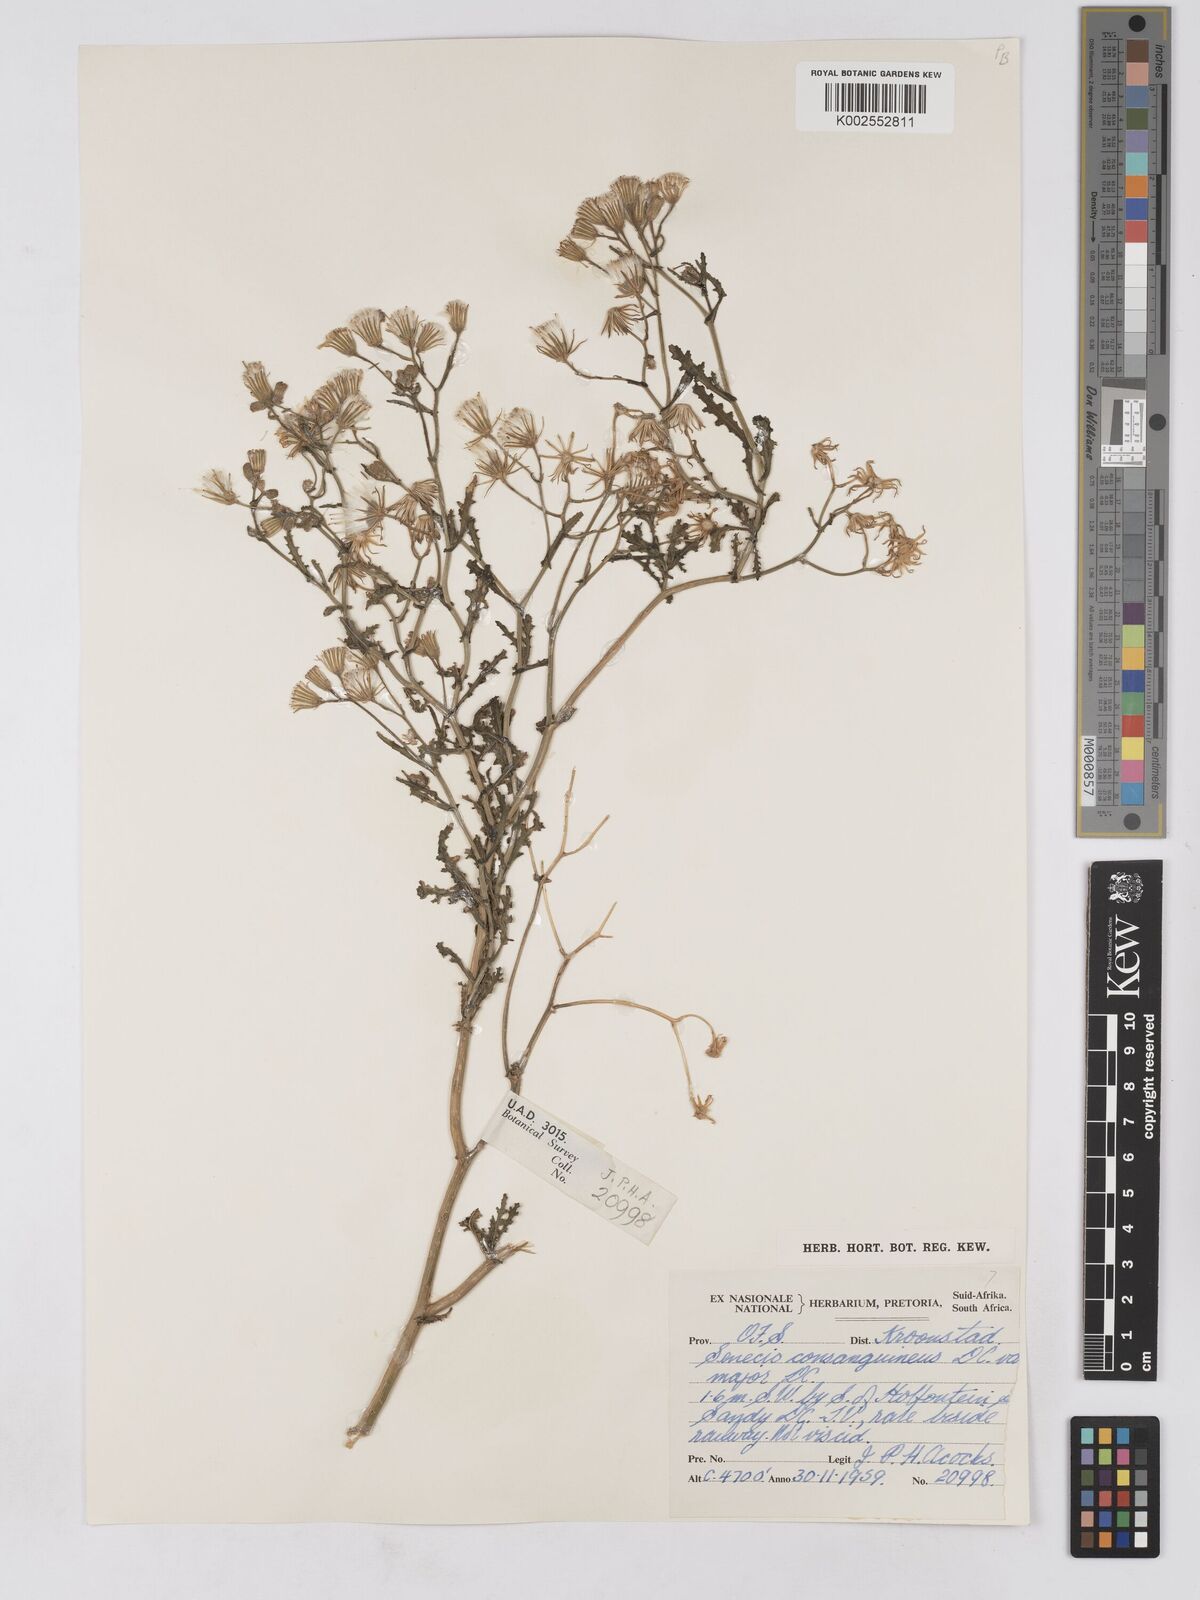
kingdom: Plantae
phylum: Tracheophyta
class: Magnoliopsida
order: Asterales
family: Asteraceae
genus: Senecio
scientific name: Senecio consanguineus
